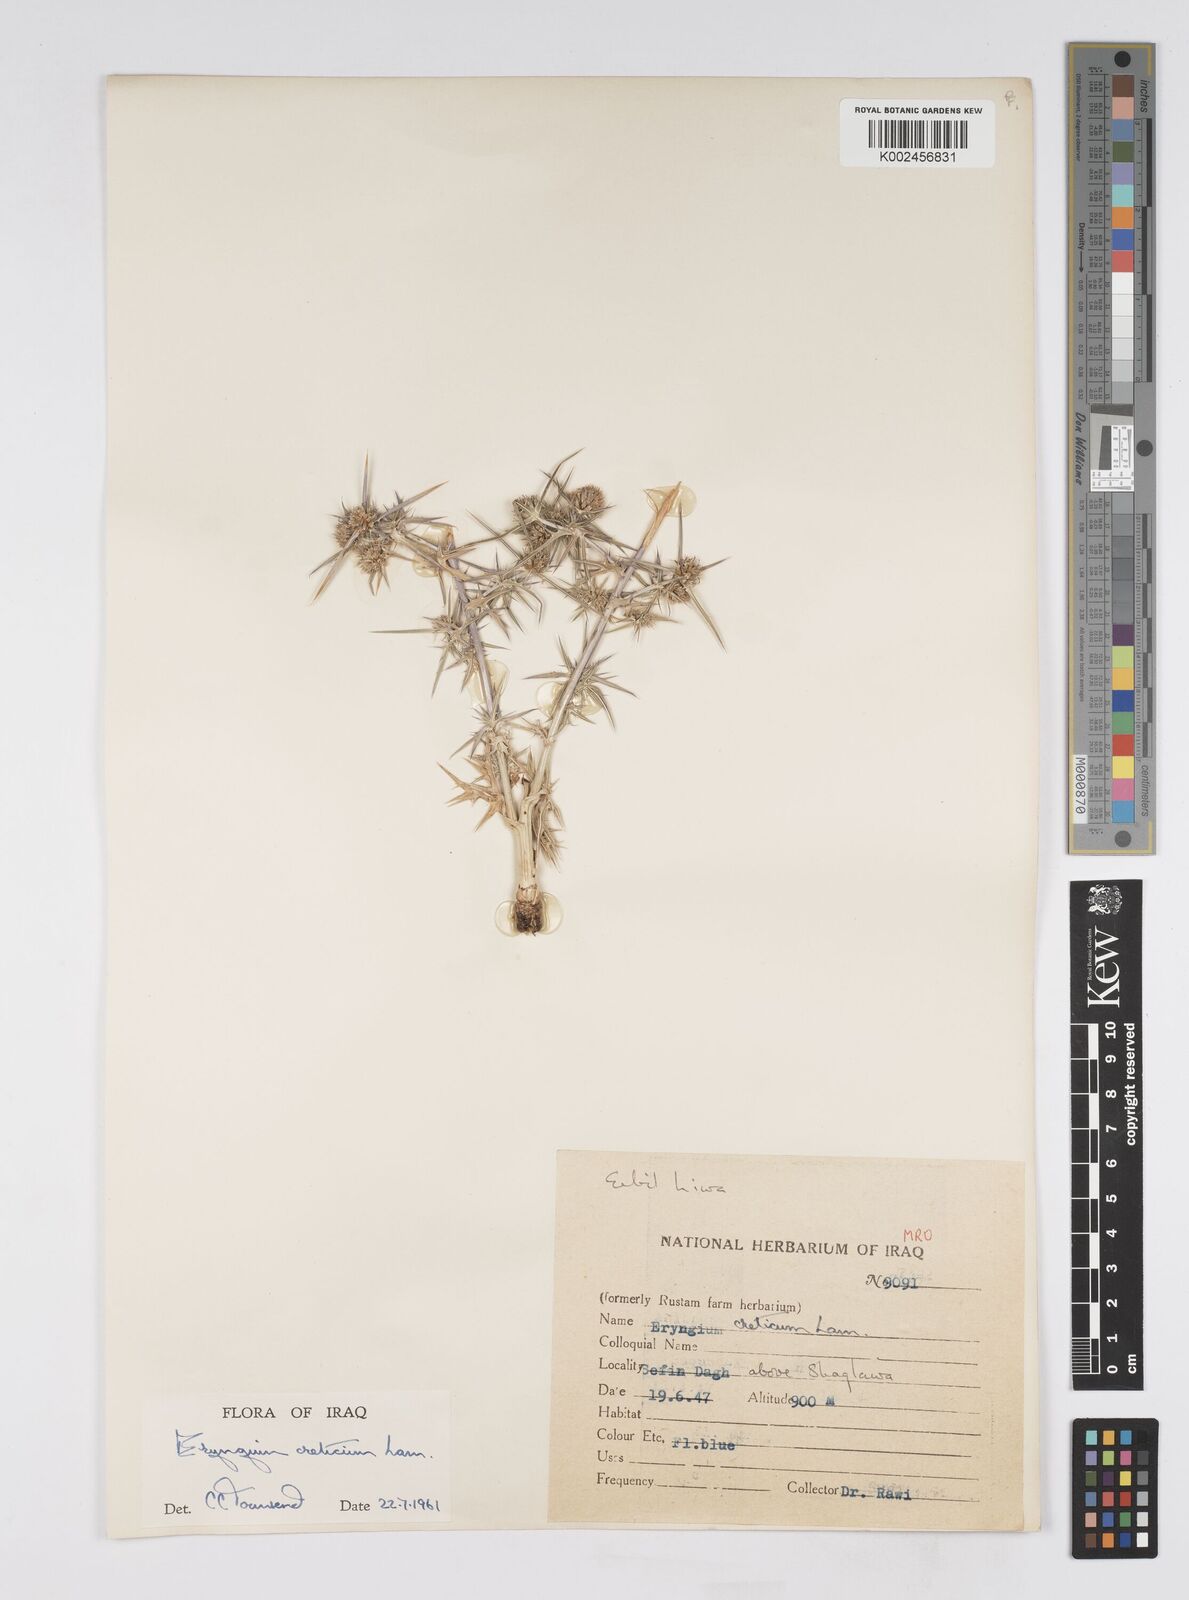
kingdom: Plantae
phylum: Tracheophyta
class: Magnoliopsida
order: Apiales
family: Apiaceae
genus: Eryngium
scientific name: Eryngium creticum
